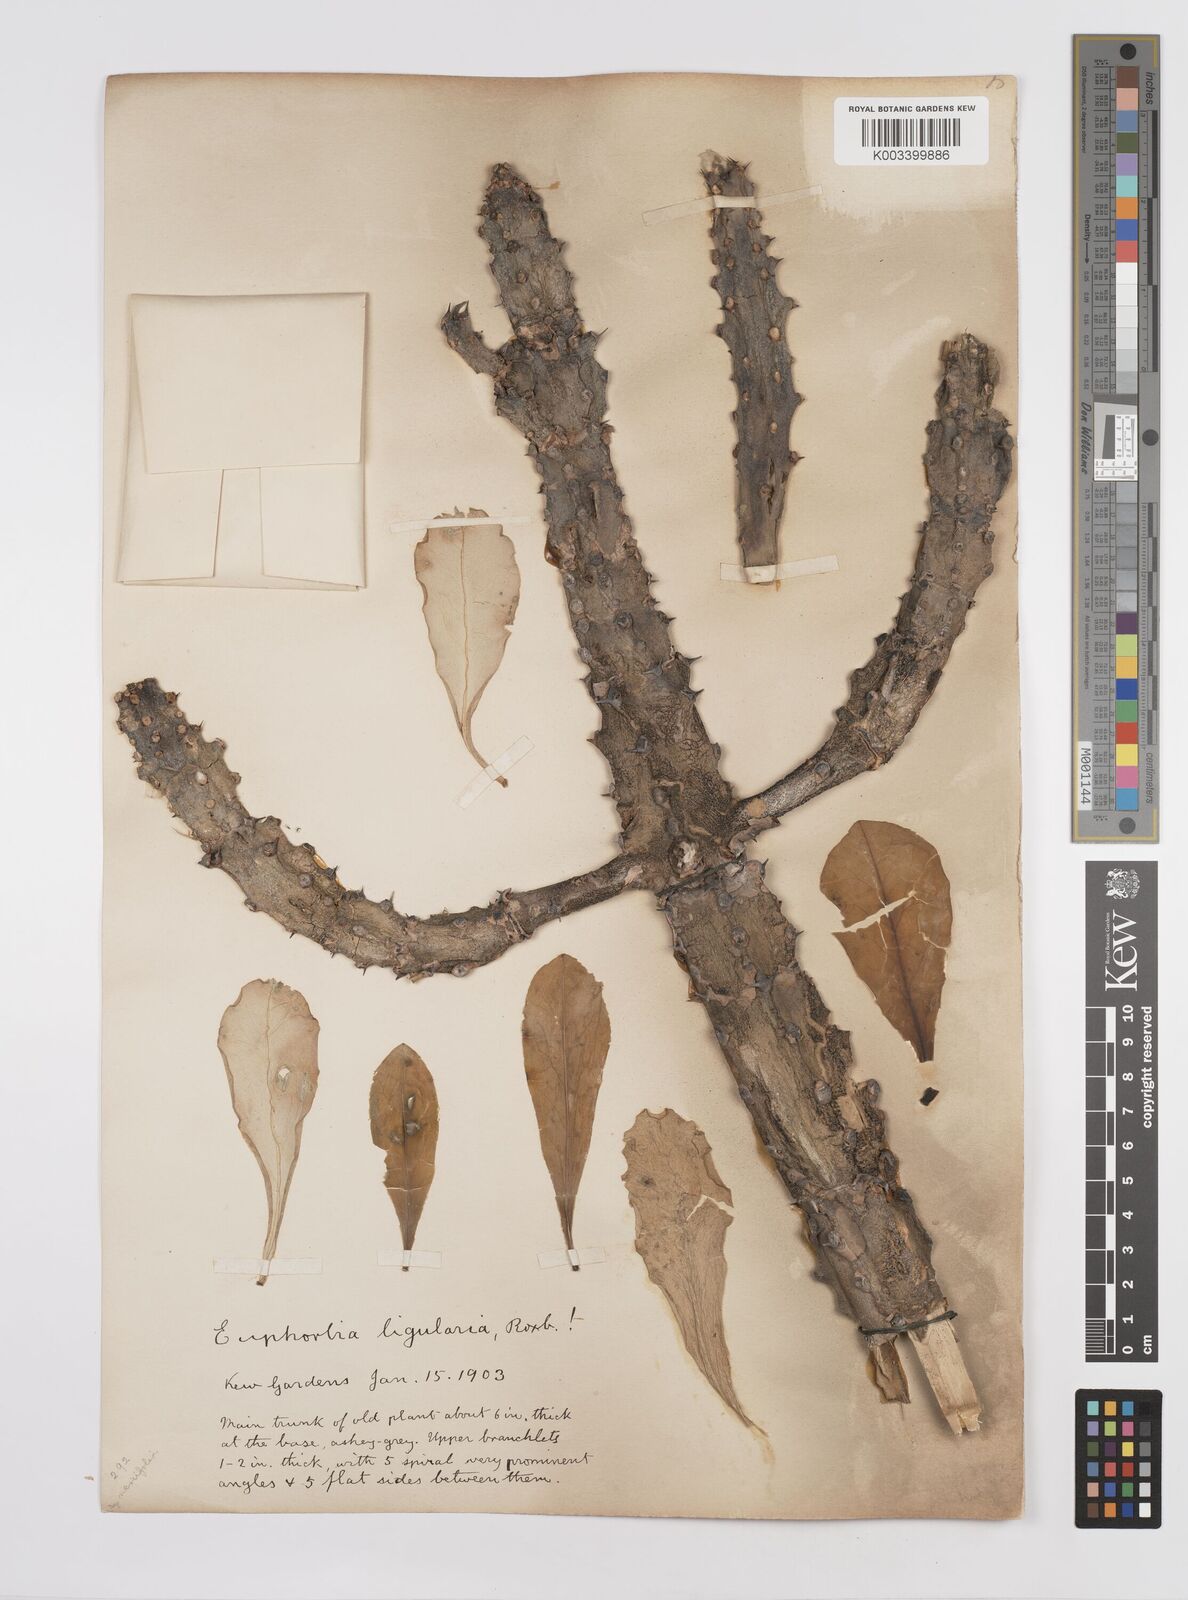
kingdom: Plantae
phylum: Tracheophyta
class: Magnoliopsida
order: Malpighiales
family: Euphorbiaceae
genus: Euphorbia
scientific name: Euphorbia
